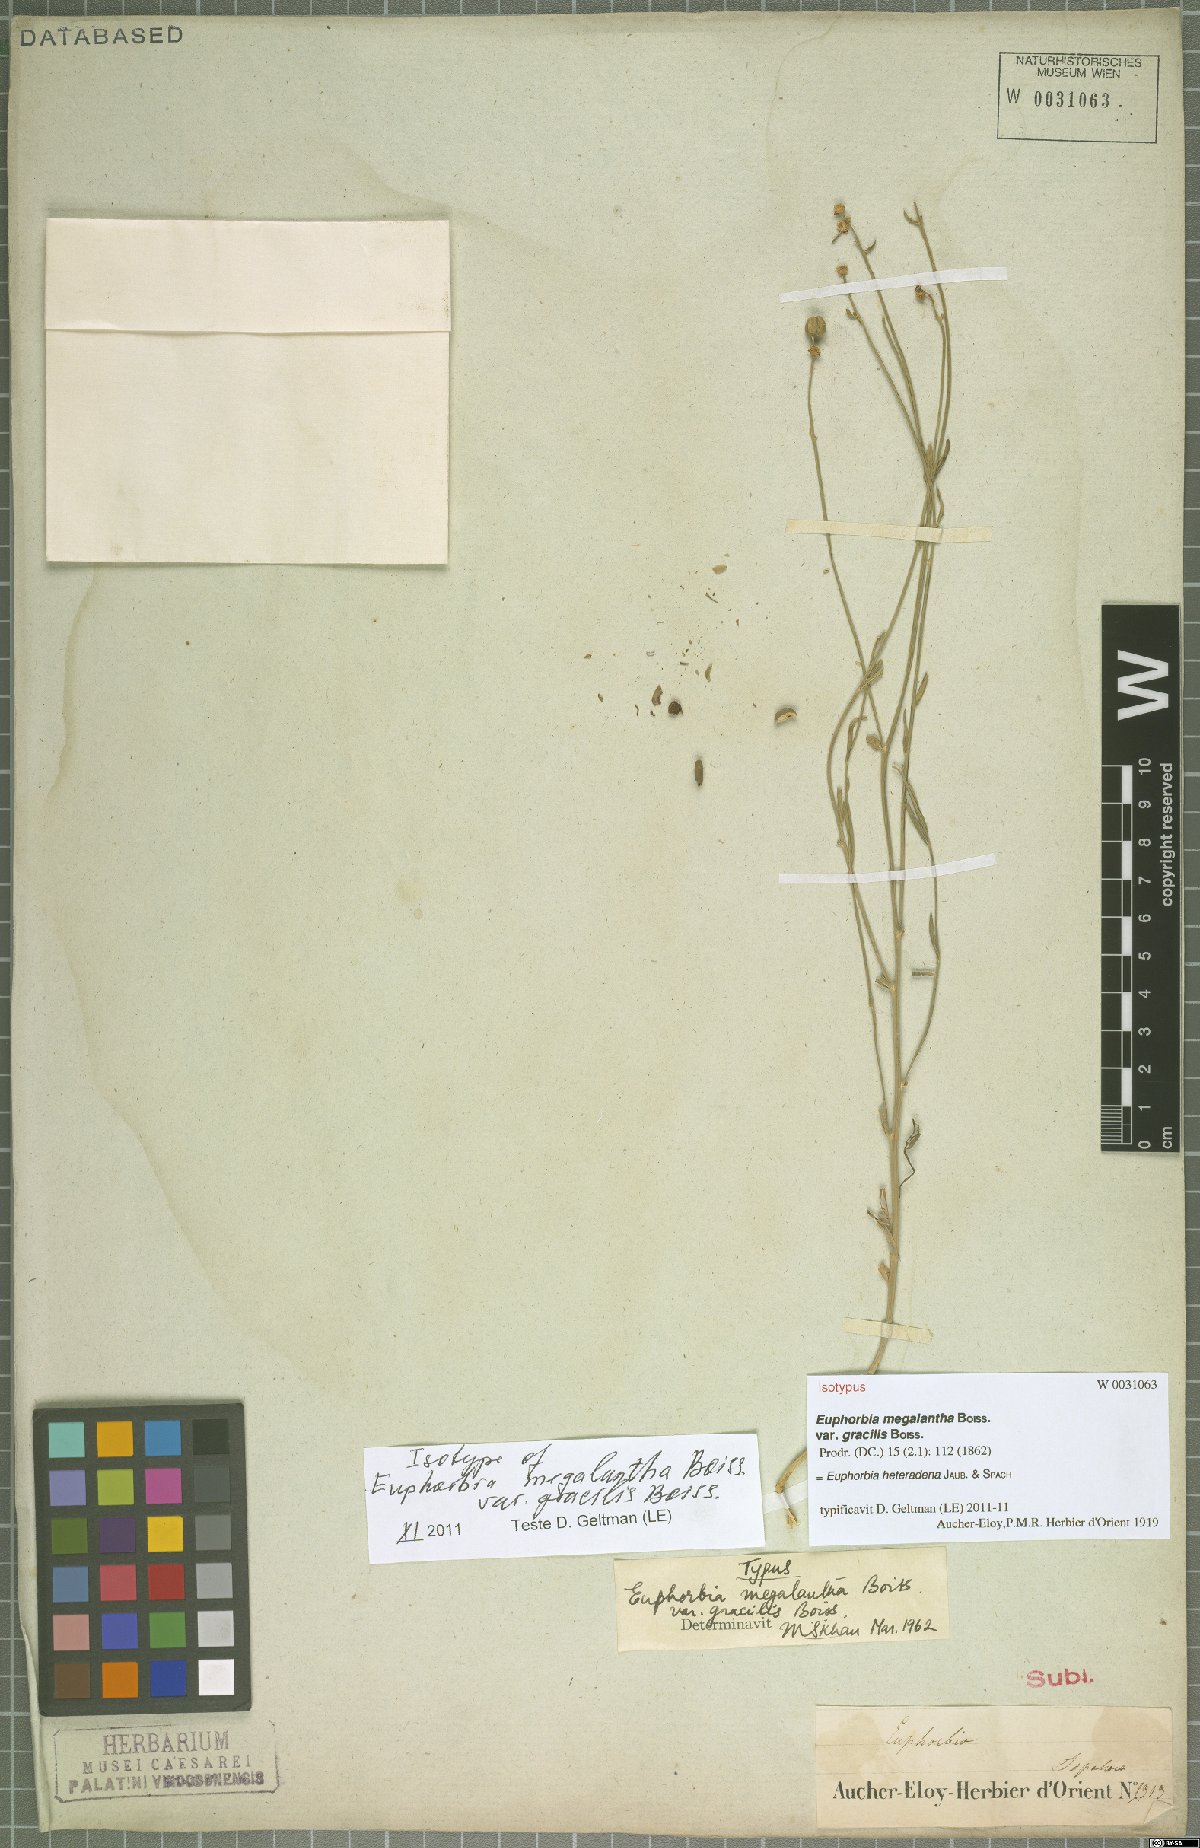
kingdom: Plantae
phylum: Tracheophyta
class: Magnoliopsida
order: Malpighiales
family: Euphorbiaceae
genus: Euphorbia
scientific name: Euphorbia heteradena
